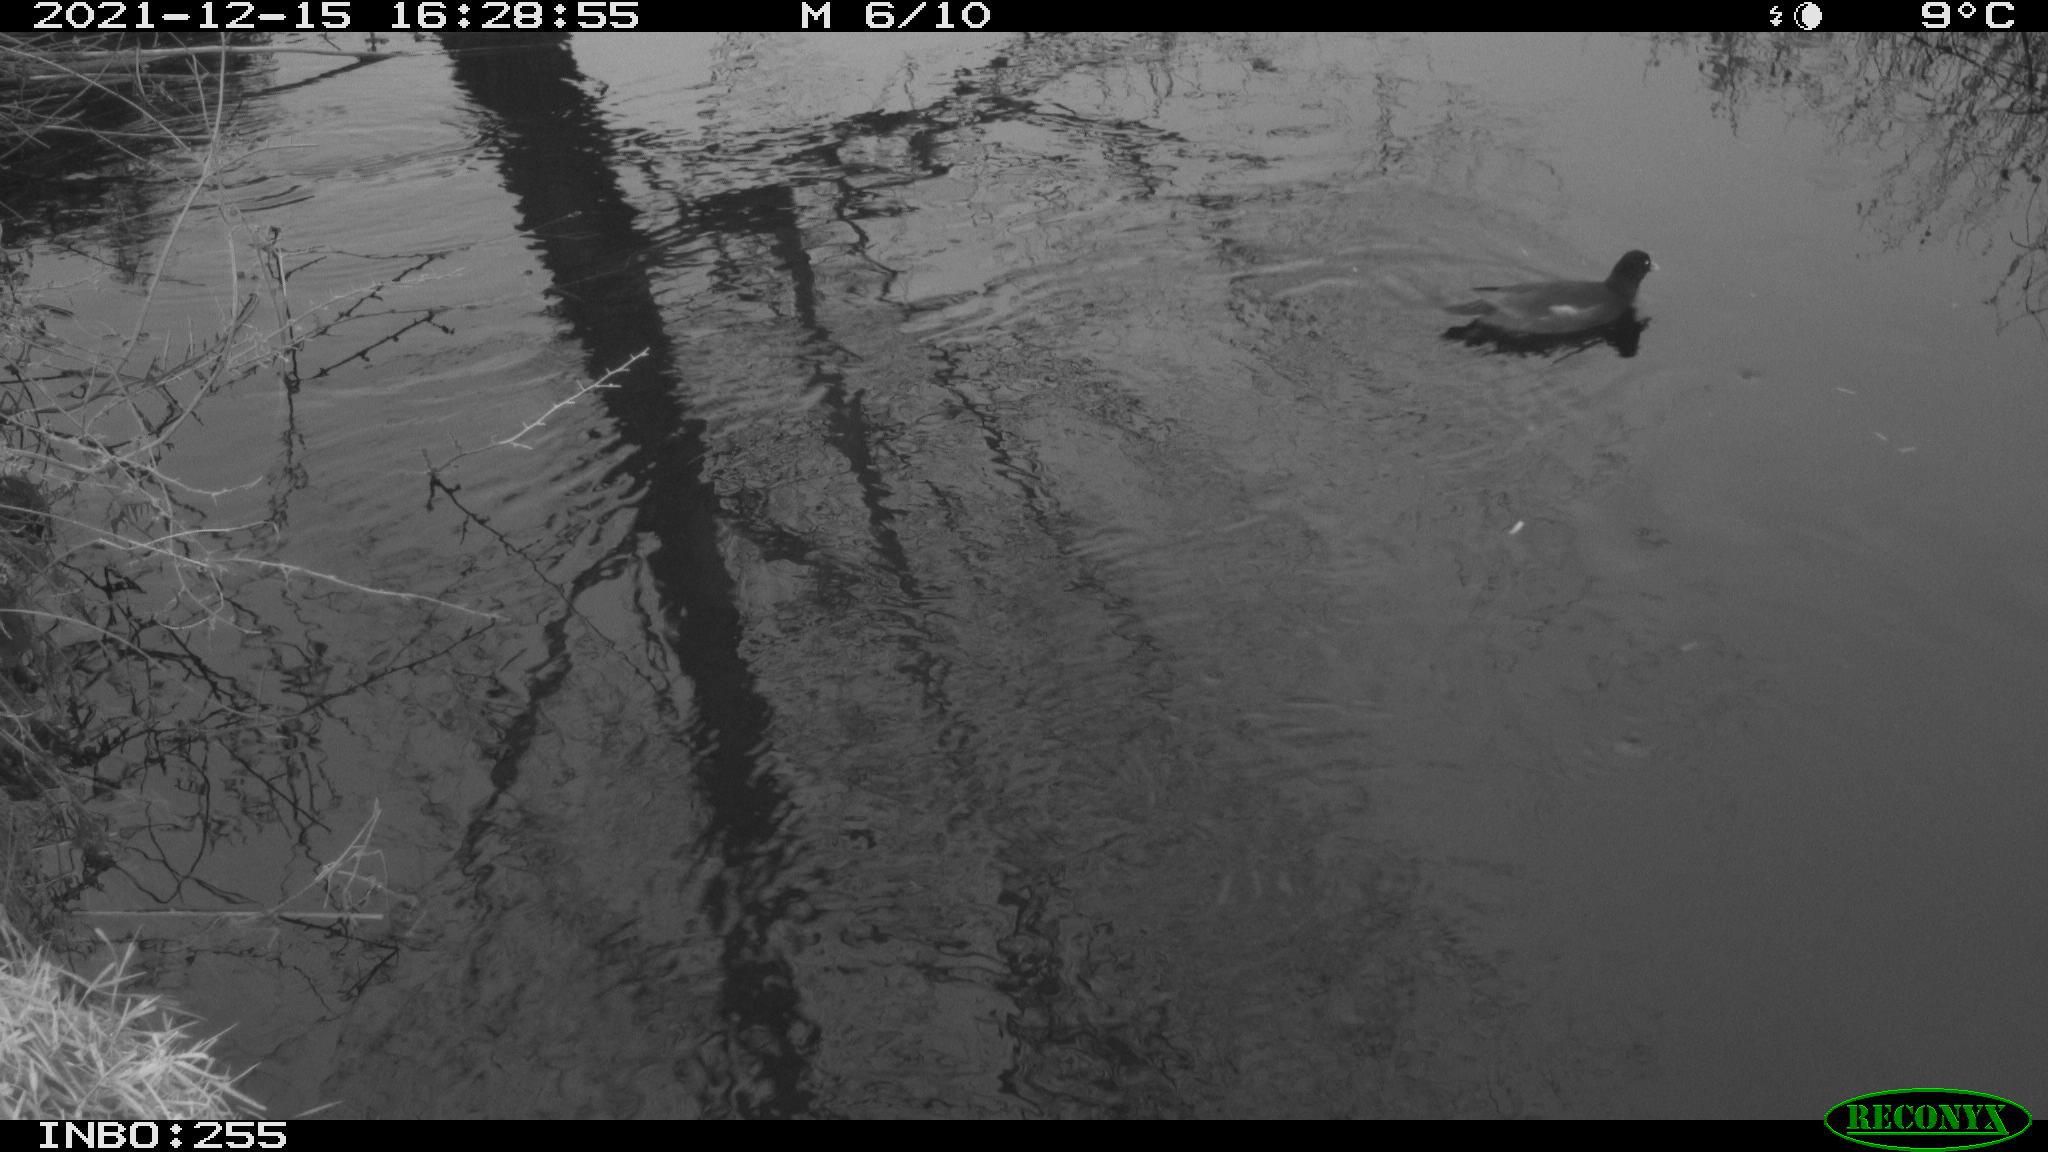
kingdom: Animalia
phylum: Chordata
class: Aves
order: Gruiformes
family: Rallidae
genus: Gallinula
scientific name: Gallinula chloropus
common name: Common moorhen
